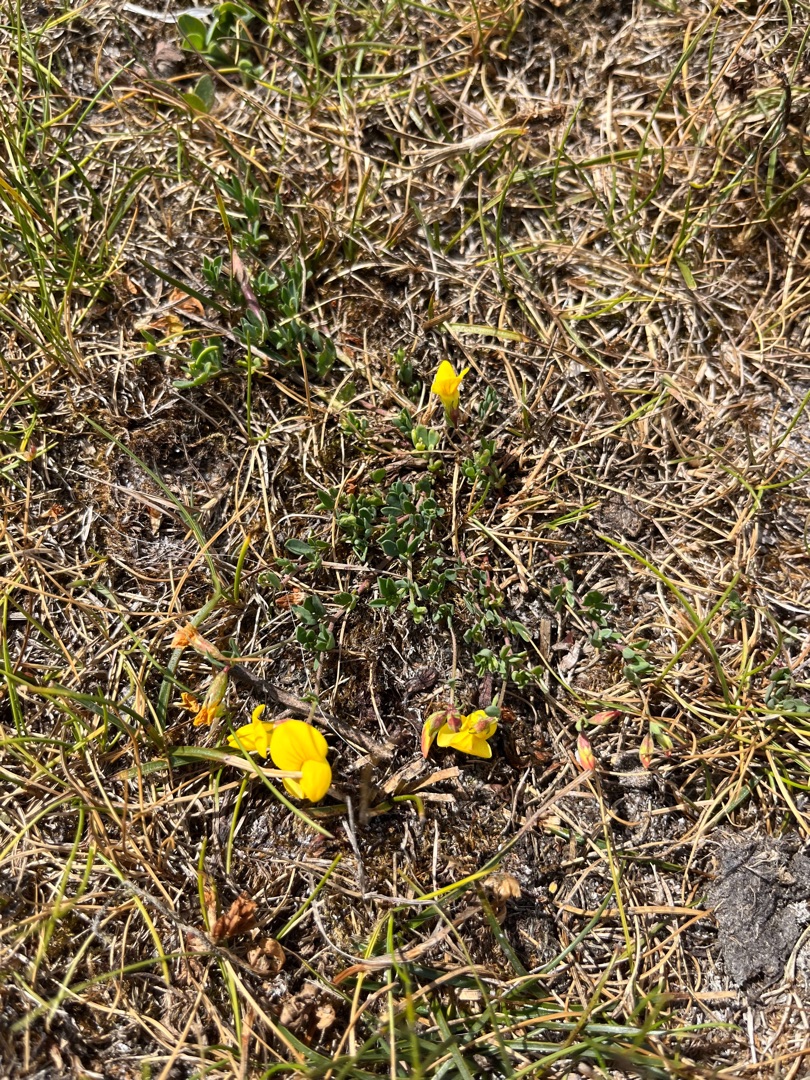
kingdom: Plantae
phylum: Tracheophyta
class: Magnoliopsida
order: Fabales
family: Fabaceae
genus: Lotus
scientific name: Lotus tenuis
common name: Smalbladet kællingetand
